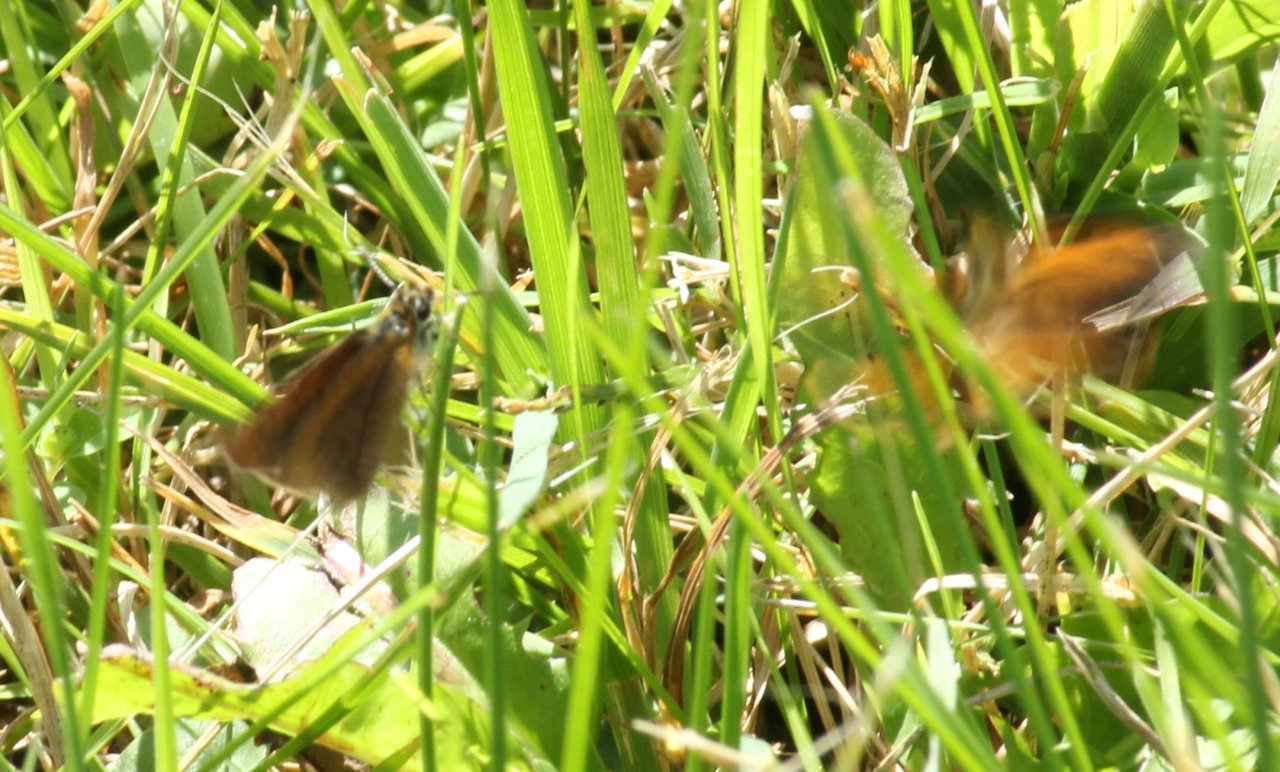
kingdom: Animalia
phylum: Arthropoda
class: Insecta
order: Lepidoptera
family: Hesperiidae
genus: Ancyloxypha
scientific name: Ancyloxypha numitor
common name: Least Skipper
